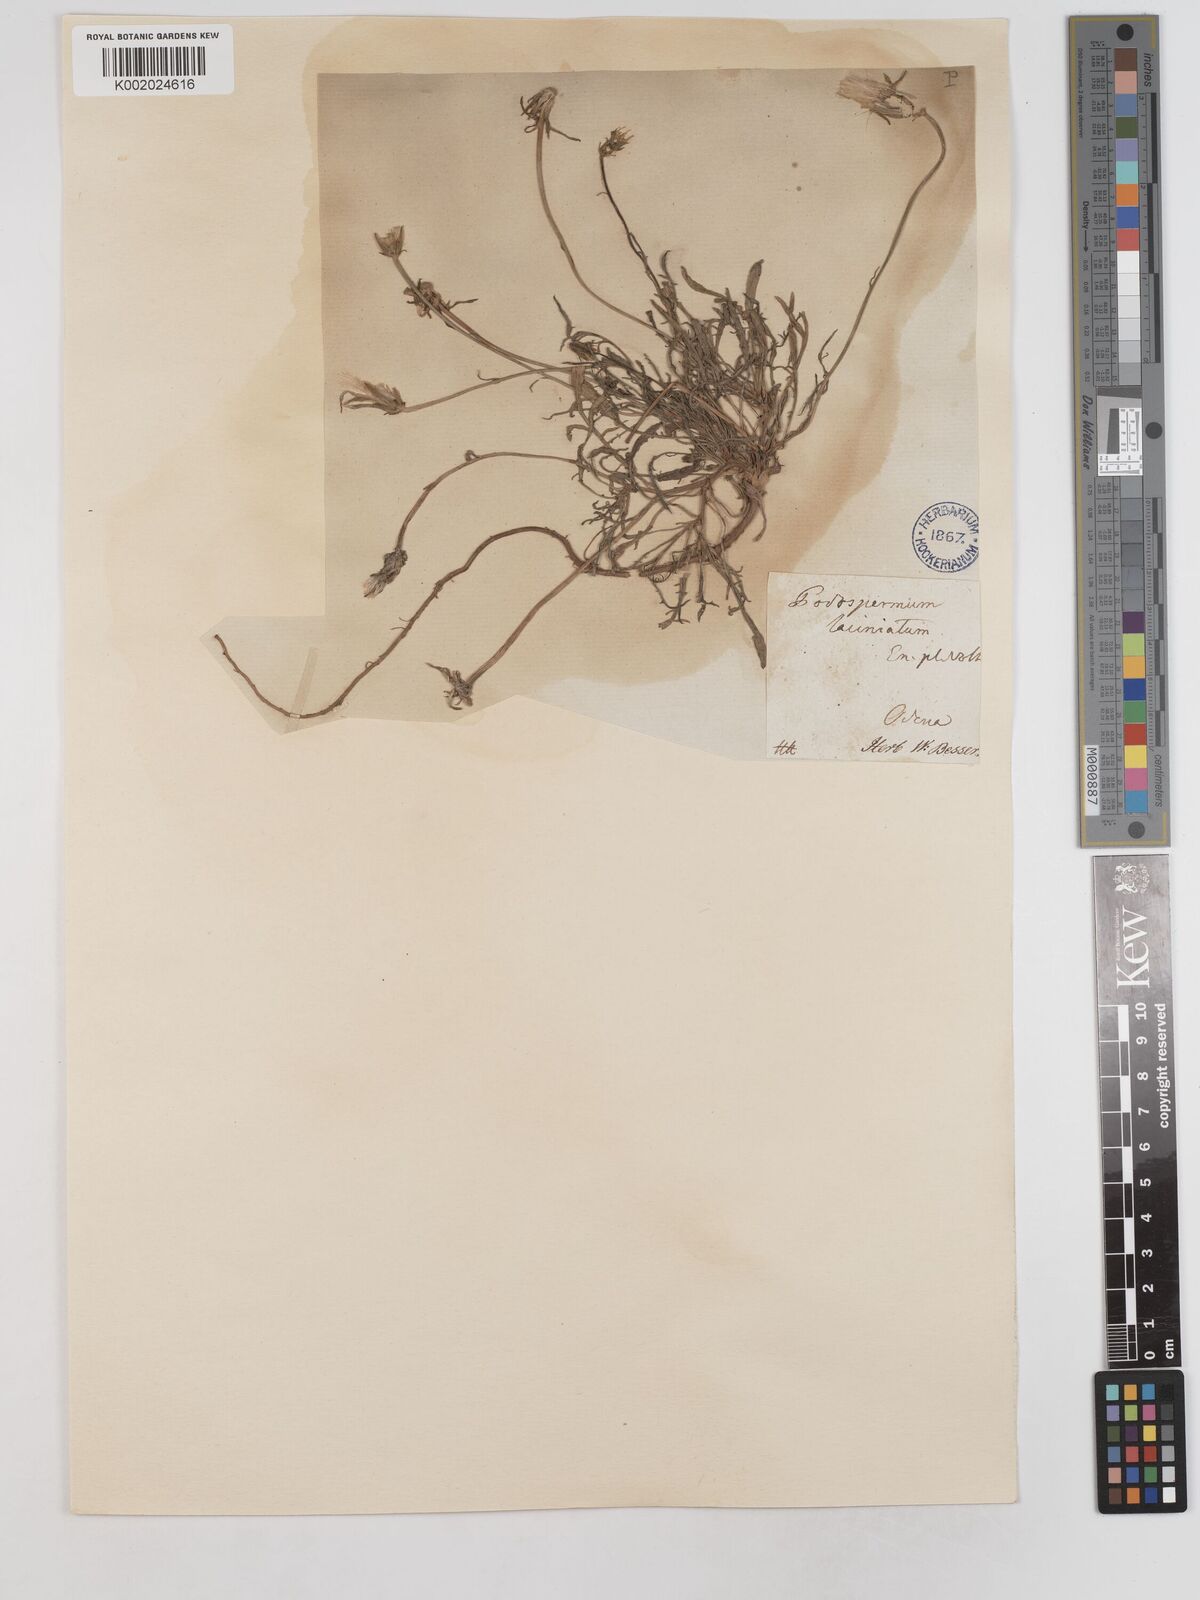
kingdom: Plantae
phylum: Tracheophyta
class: Magnoliopsida
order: Asterales
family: Asteraceae
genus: Scorzonera
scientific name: Scorzonera laciniata
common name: Cutleaf vipergrass
